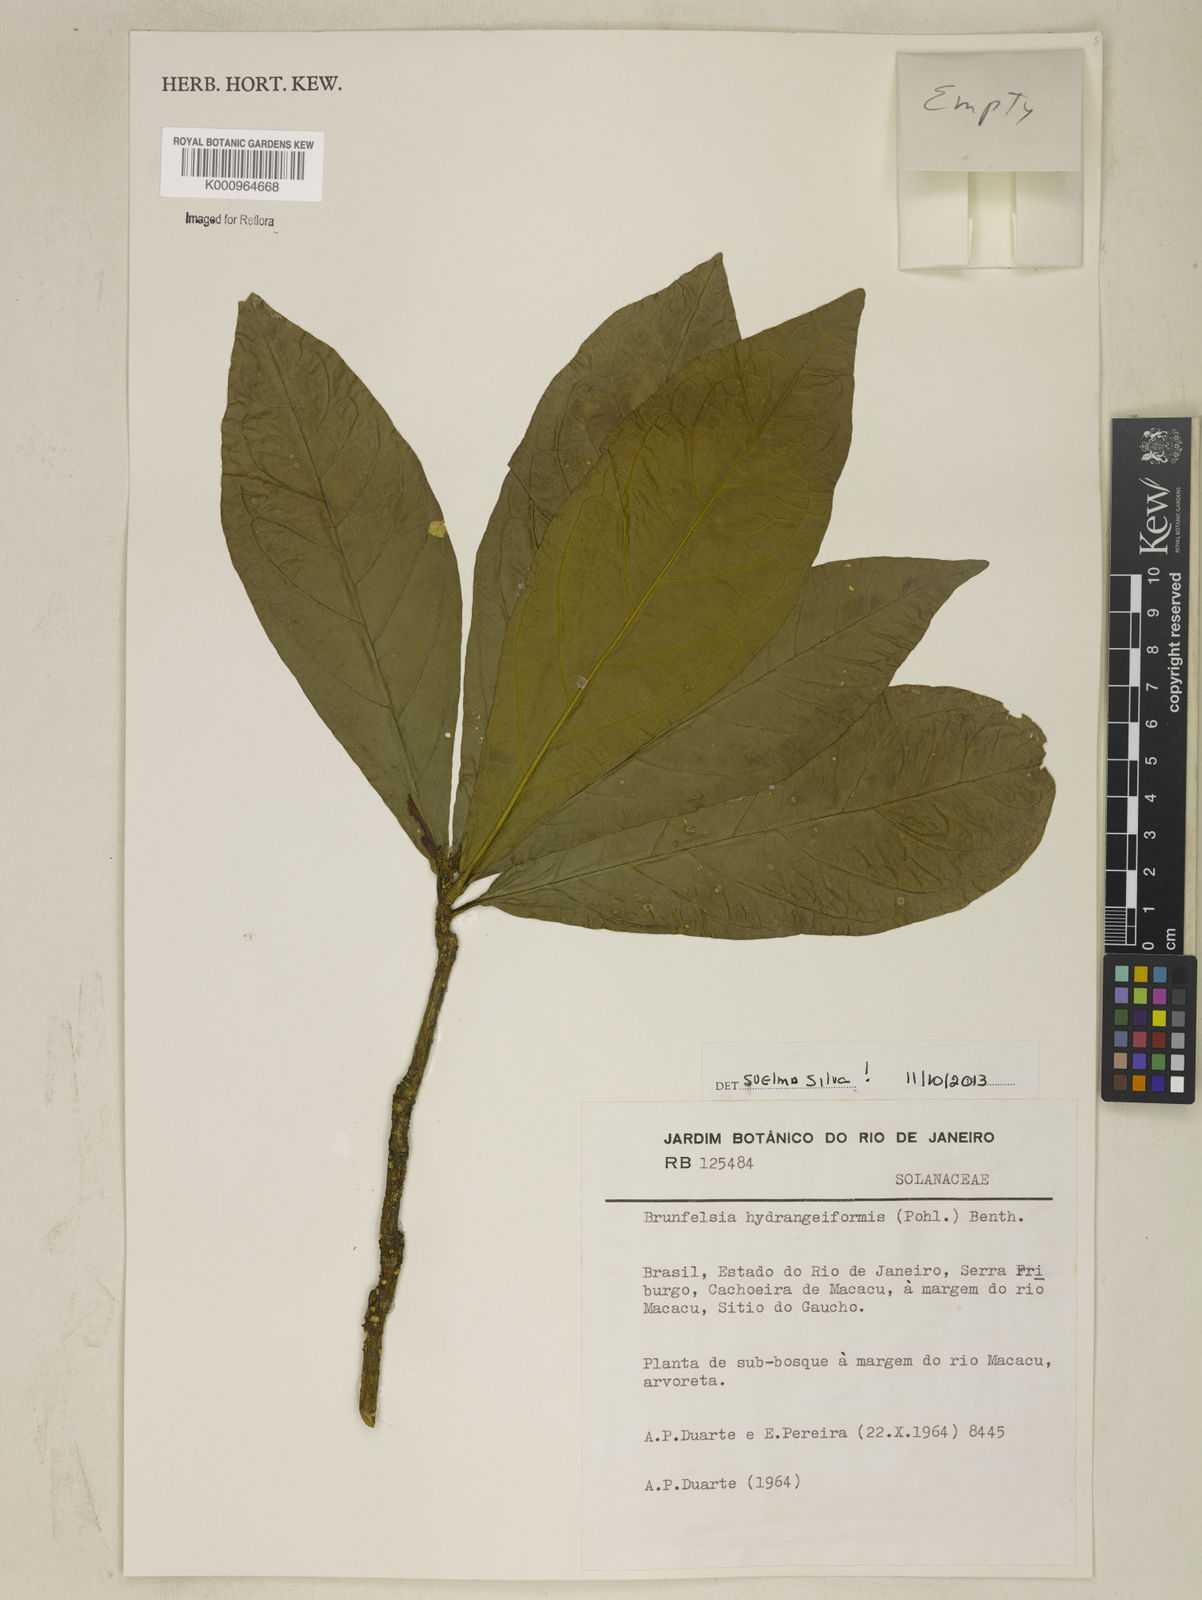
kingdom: Plantae
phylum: Tracheophyta
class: Magnoliopsida
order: Solanales
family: Solanaceae
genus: Brunfelsia
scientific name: Brunfelsia hydrangeiformis
